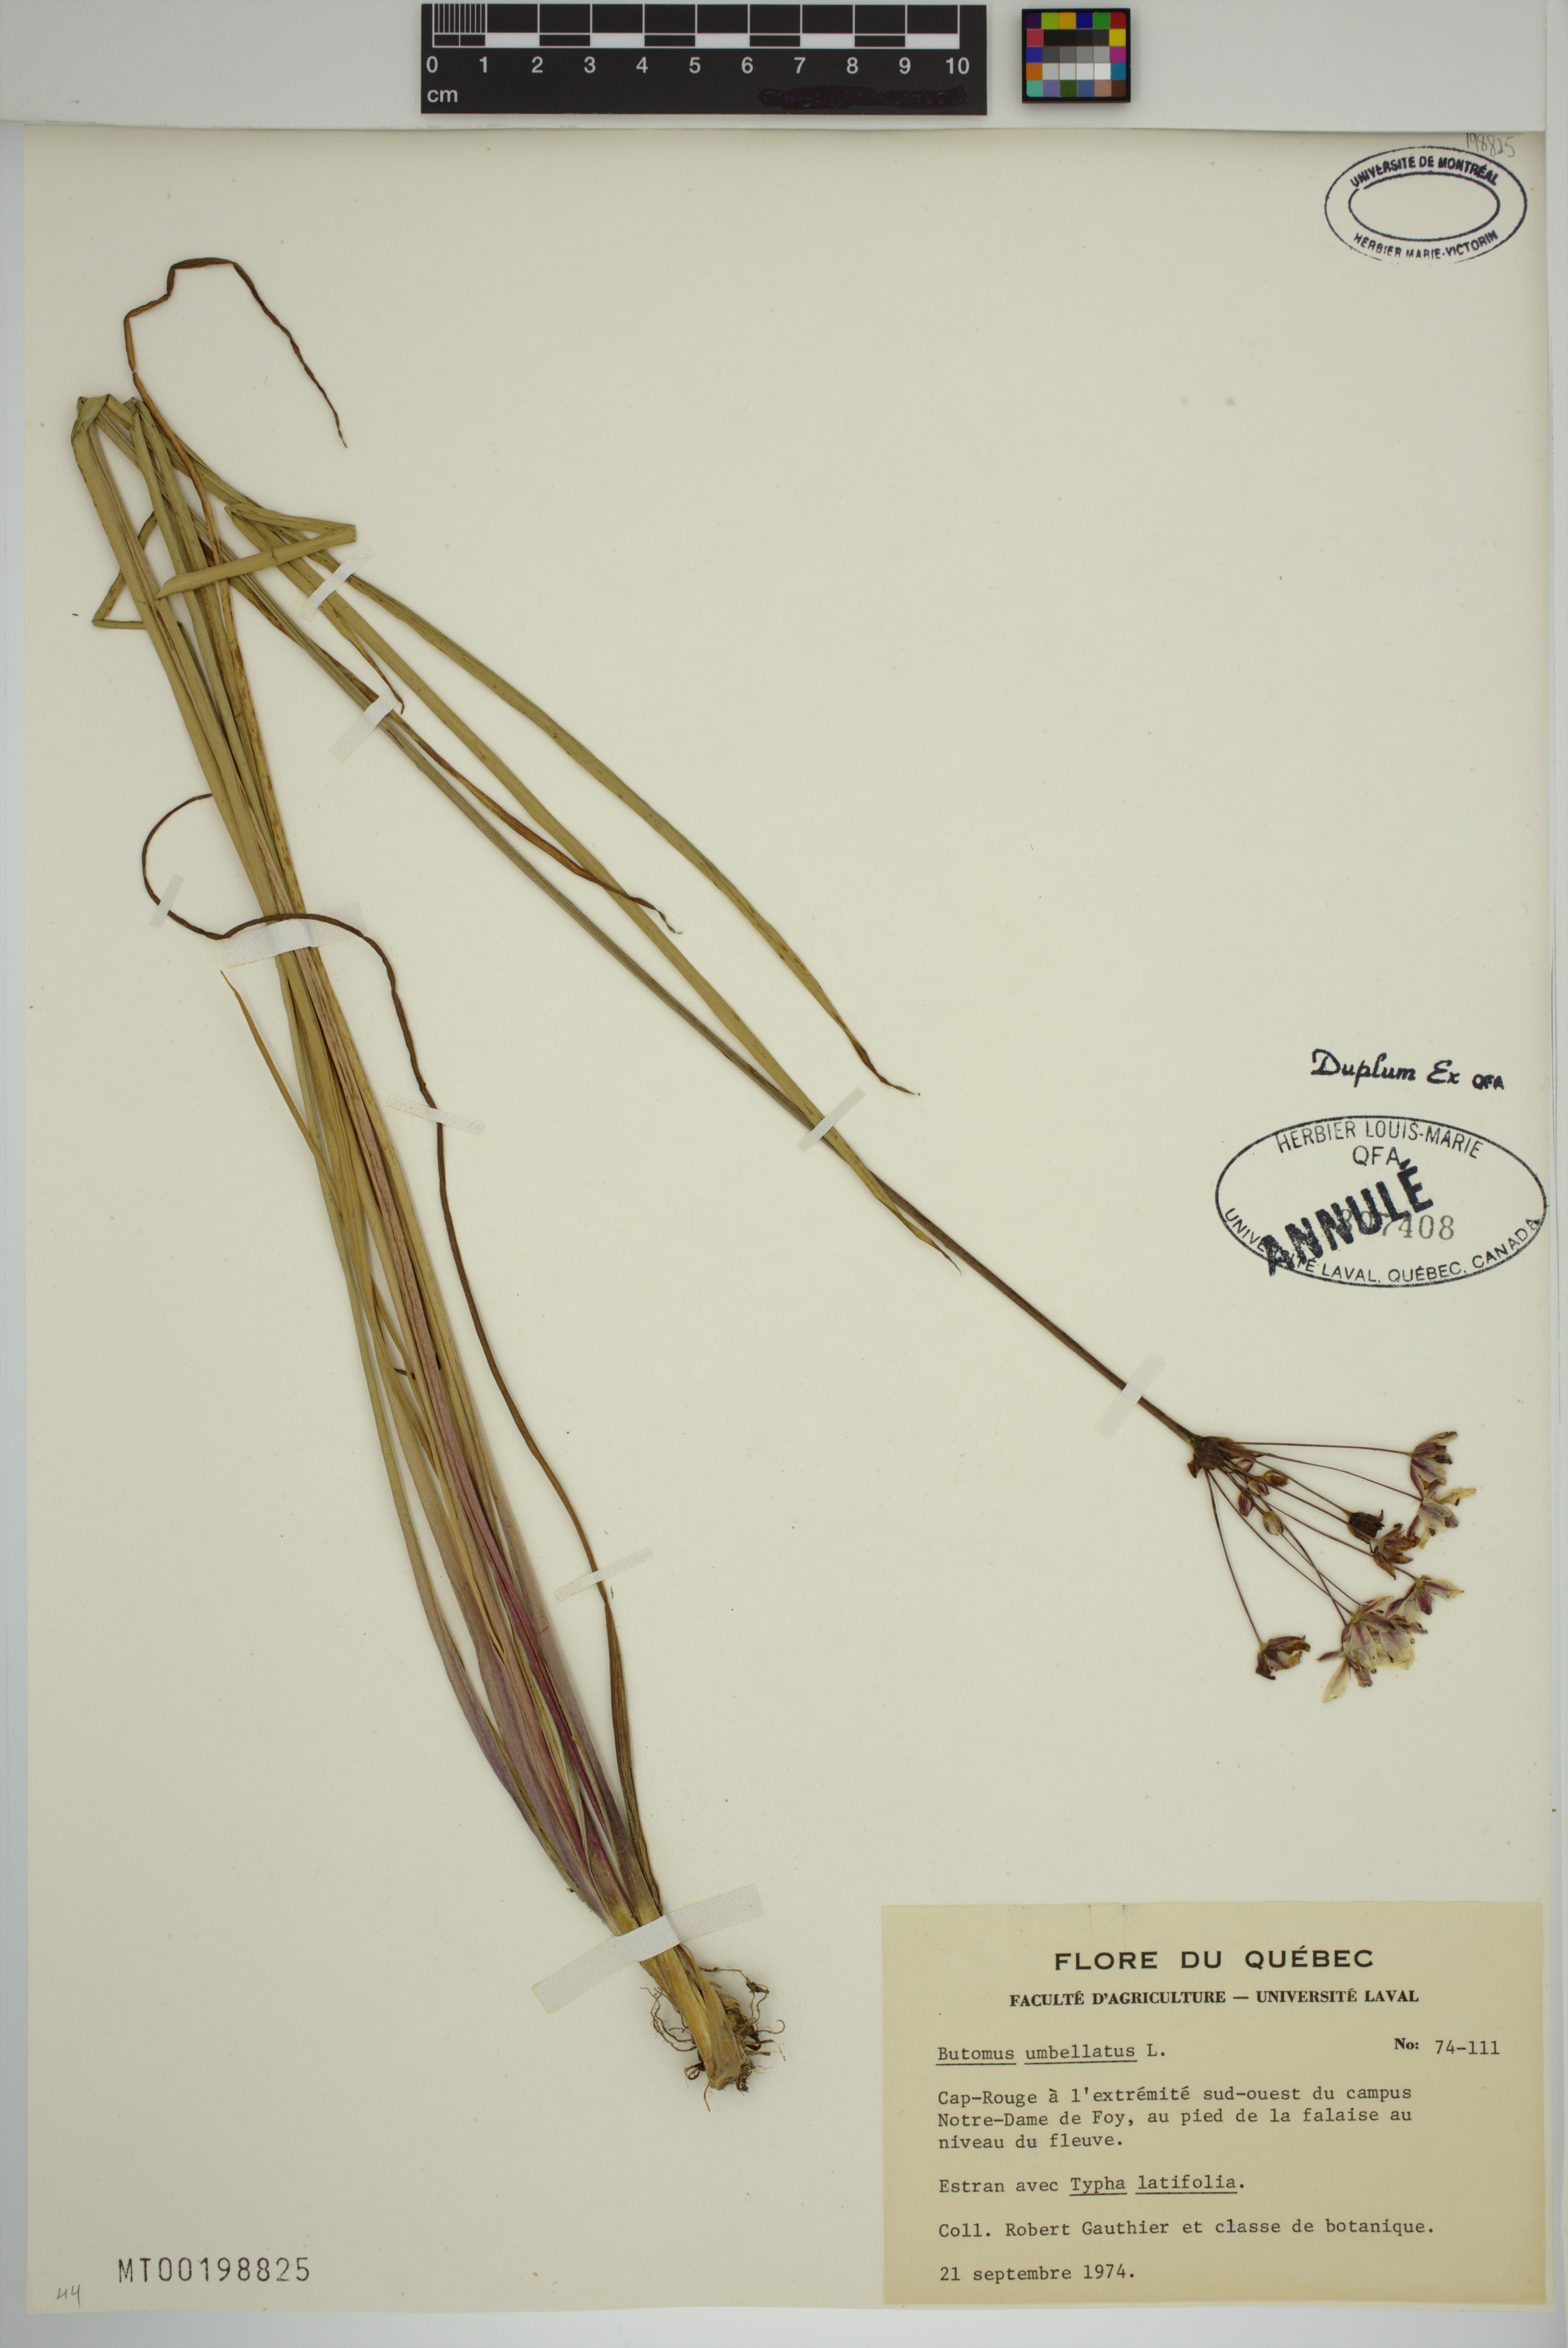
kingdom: Plantae
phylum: Tracheophyta
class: Liliopsida
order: Alismatales
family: Butomaceae
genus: Butomus
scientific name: Butomus umbellatus
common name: Flowering-rush
